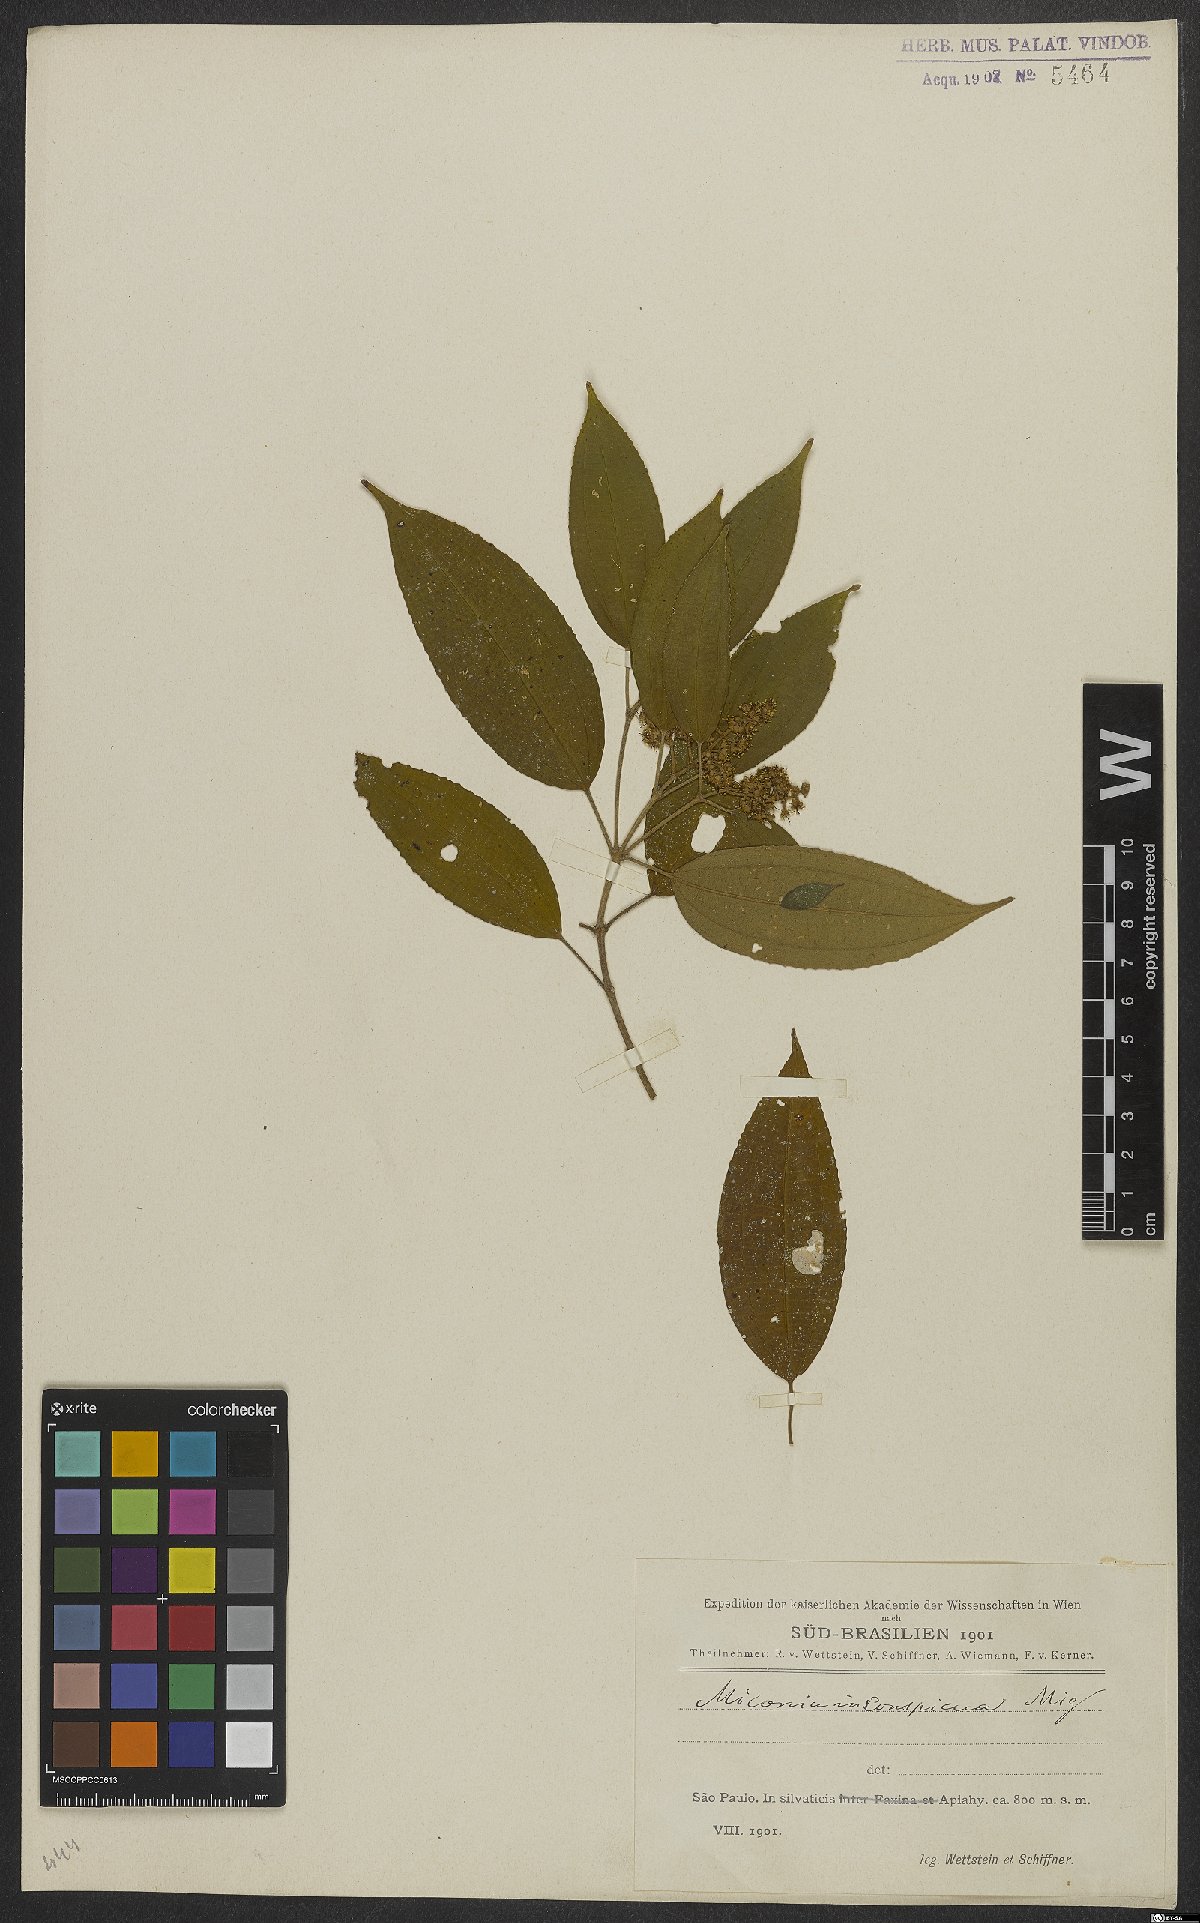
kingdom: Plantae
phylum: Tracheophyta
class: Magnoliopsida
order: Myrtales
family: Melastomataceae
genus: Miconia
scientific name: Miconia inconspicua
